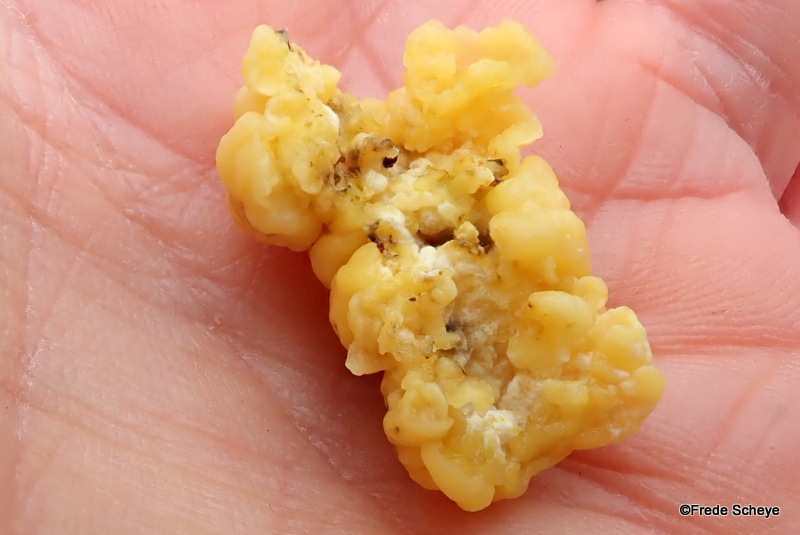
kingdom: Fungi
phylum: Ascomycota
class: Sordariomycetes
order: Xylariales
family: Hypoxylaceae
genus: Nodulisporium
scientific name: Nodulisporium cecidiogenes
